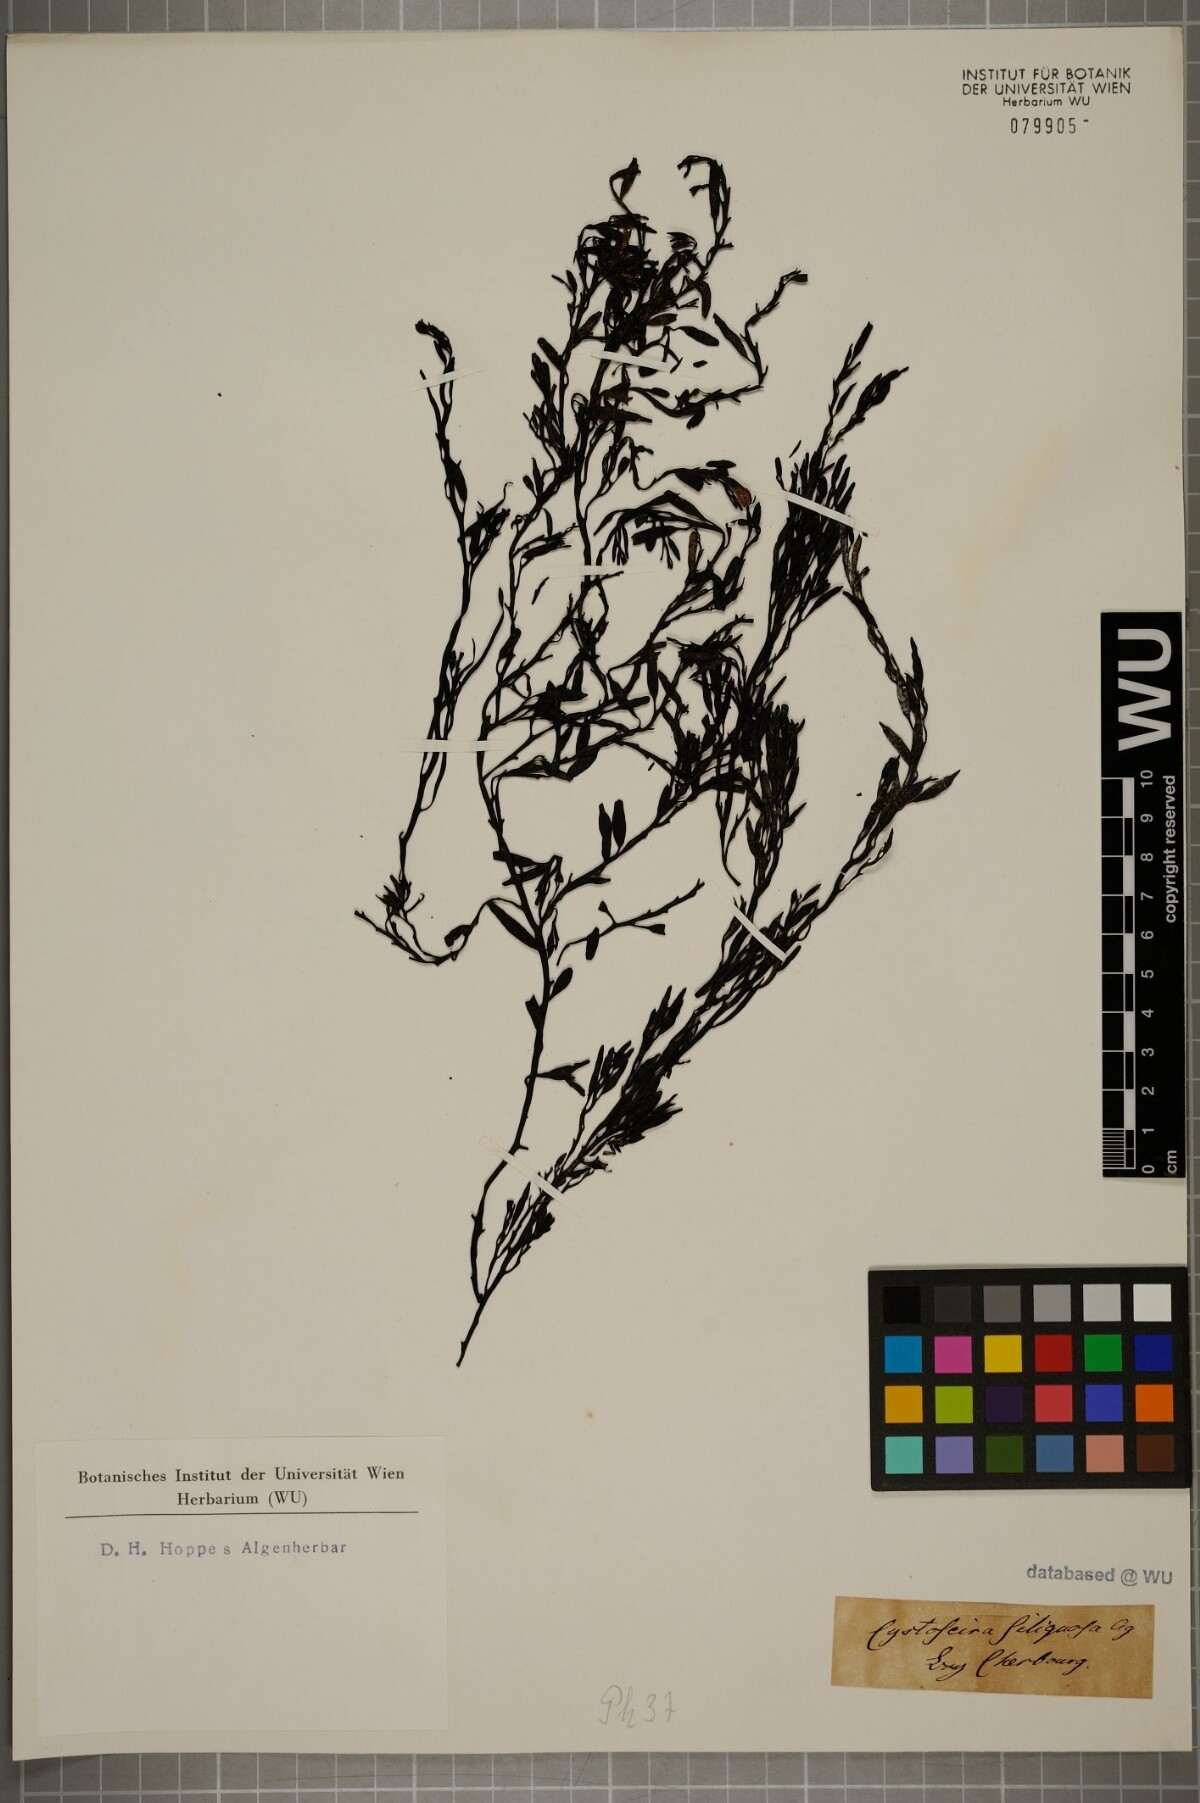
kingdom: Chromista
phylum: Ochrophyta
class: Phaeophyceae
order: Fucales
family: Sargassaceae
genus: Cystophora
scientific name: Cystophora
